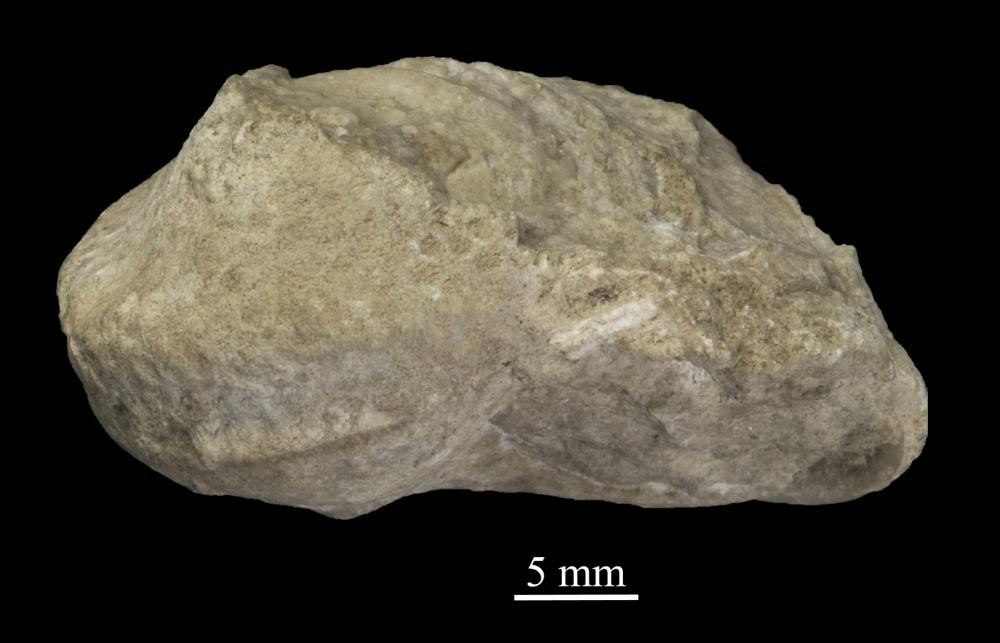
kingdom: Animalia
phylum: Mollusca
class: Gastropoda
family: Lophospiridae
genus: Ruedemannia
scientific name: Ruedemannia Worthenia borkholmiensis
